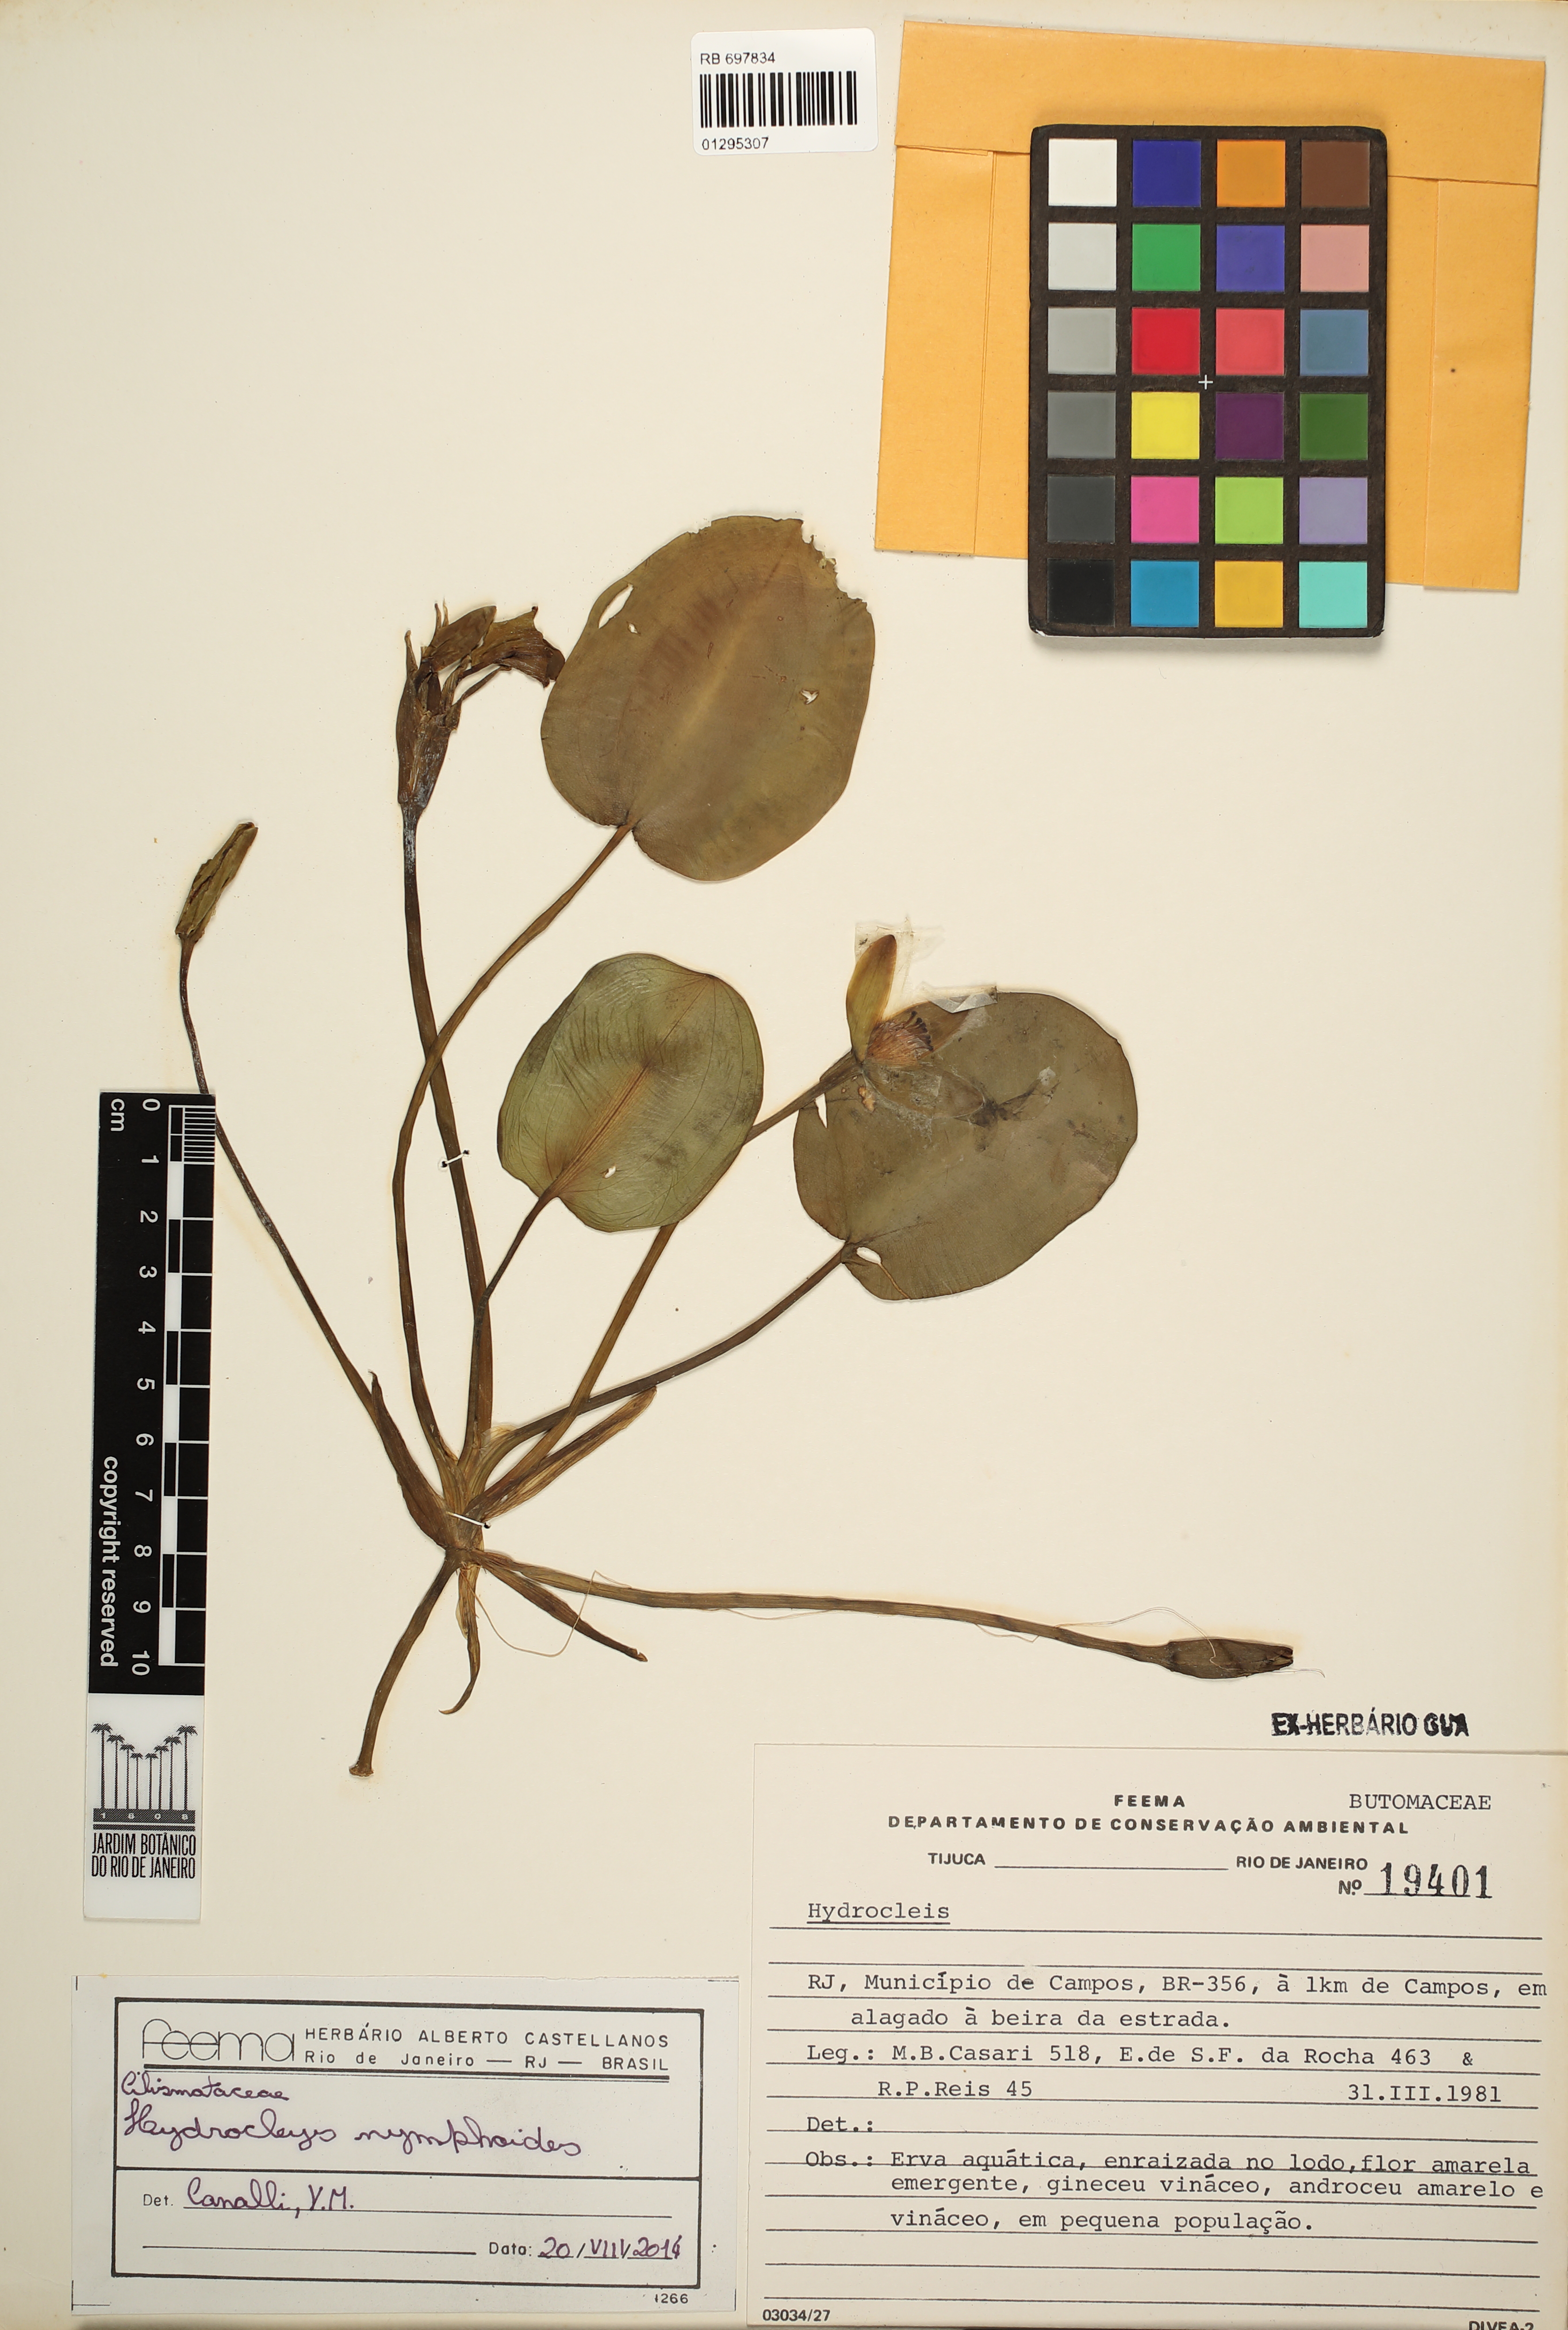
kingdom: Plantae
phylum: Tracheophyta
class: Liliopsida
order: Alismatales
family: Alismataceae
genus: Hydrocleys
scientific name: Hydrocleys nymphoides
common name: Water-poppy
